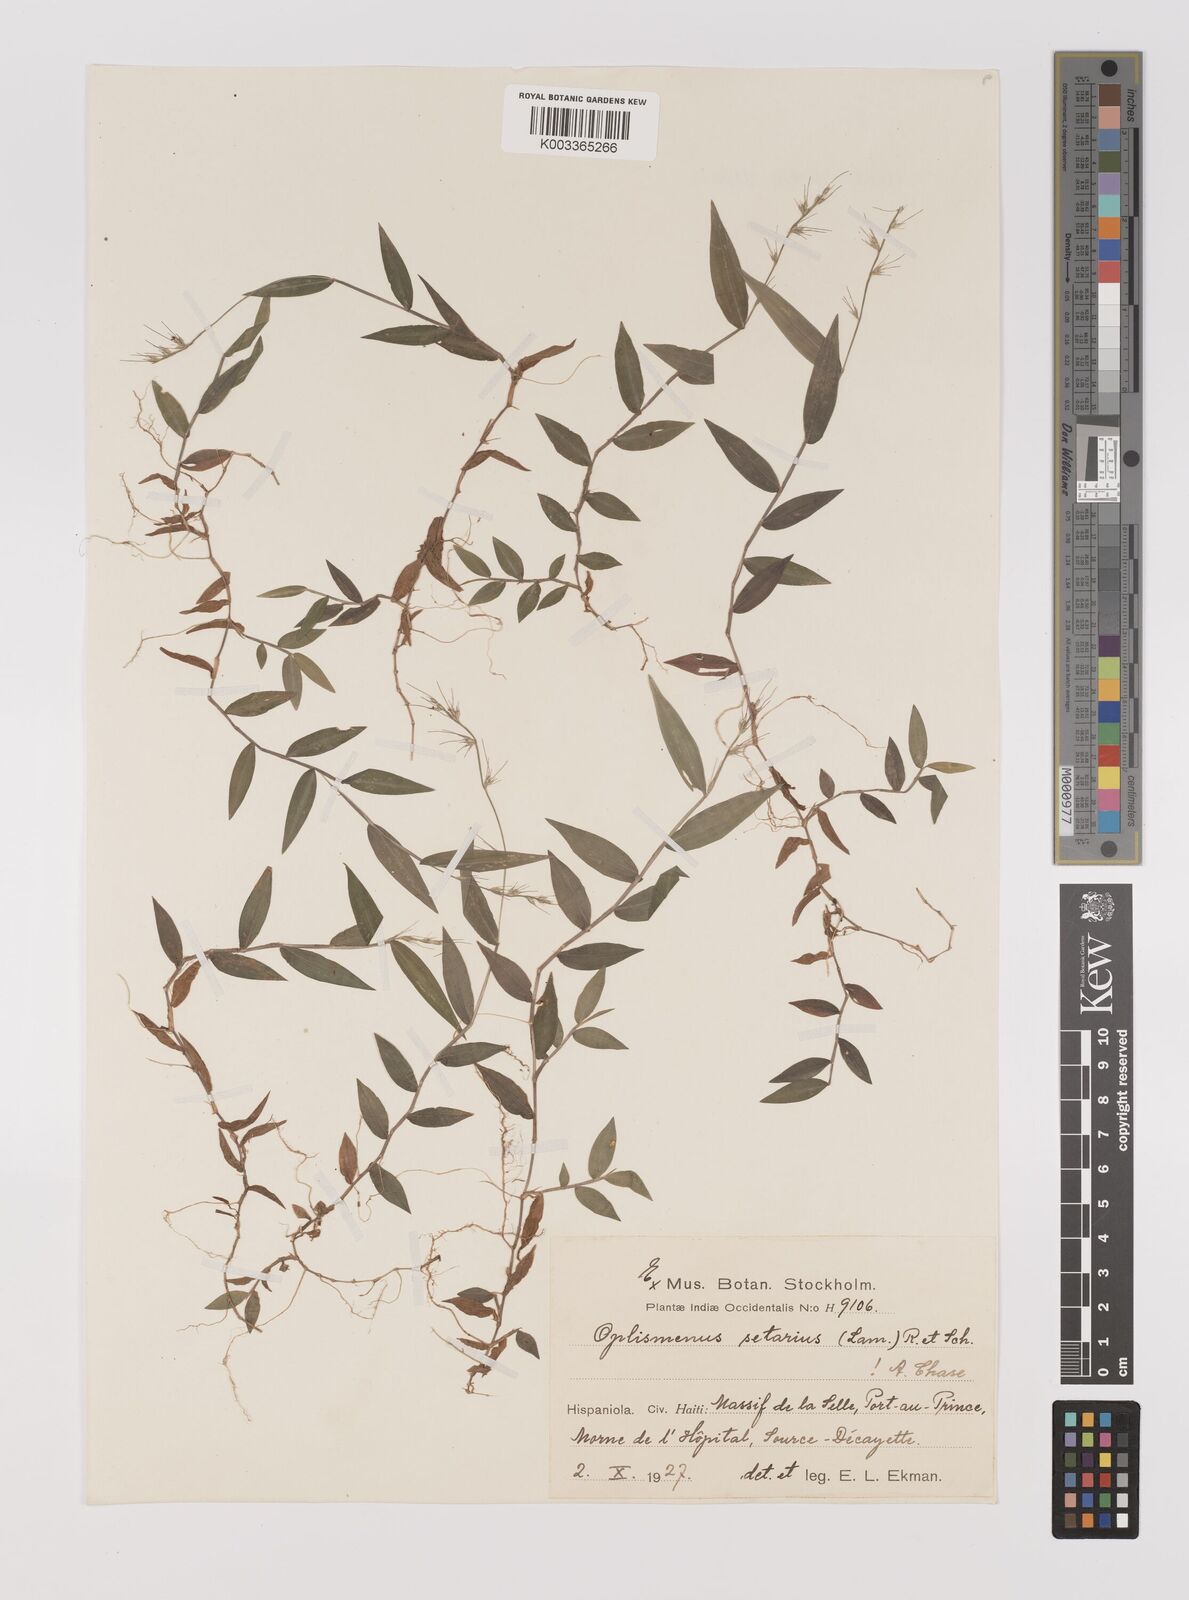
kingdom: Plantae
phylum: Tracheophyta
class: Liliopsida
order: Poales
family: Poaceae
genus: Oplismenus
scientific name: Oplismenus undulatifolius
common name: Wavyleaf basketgrass
